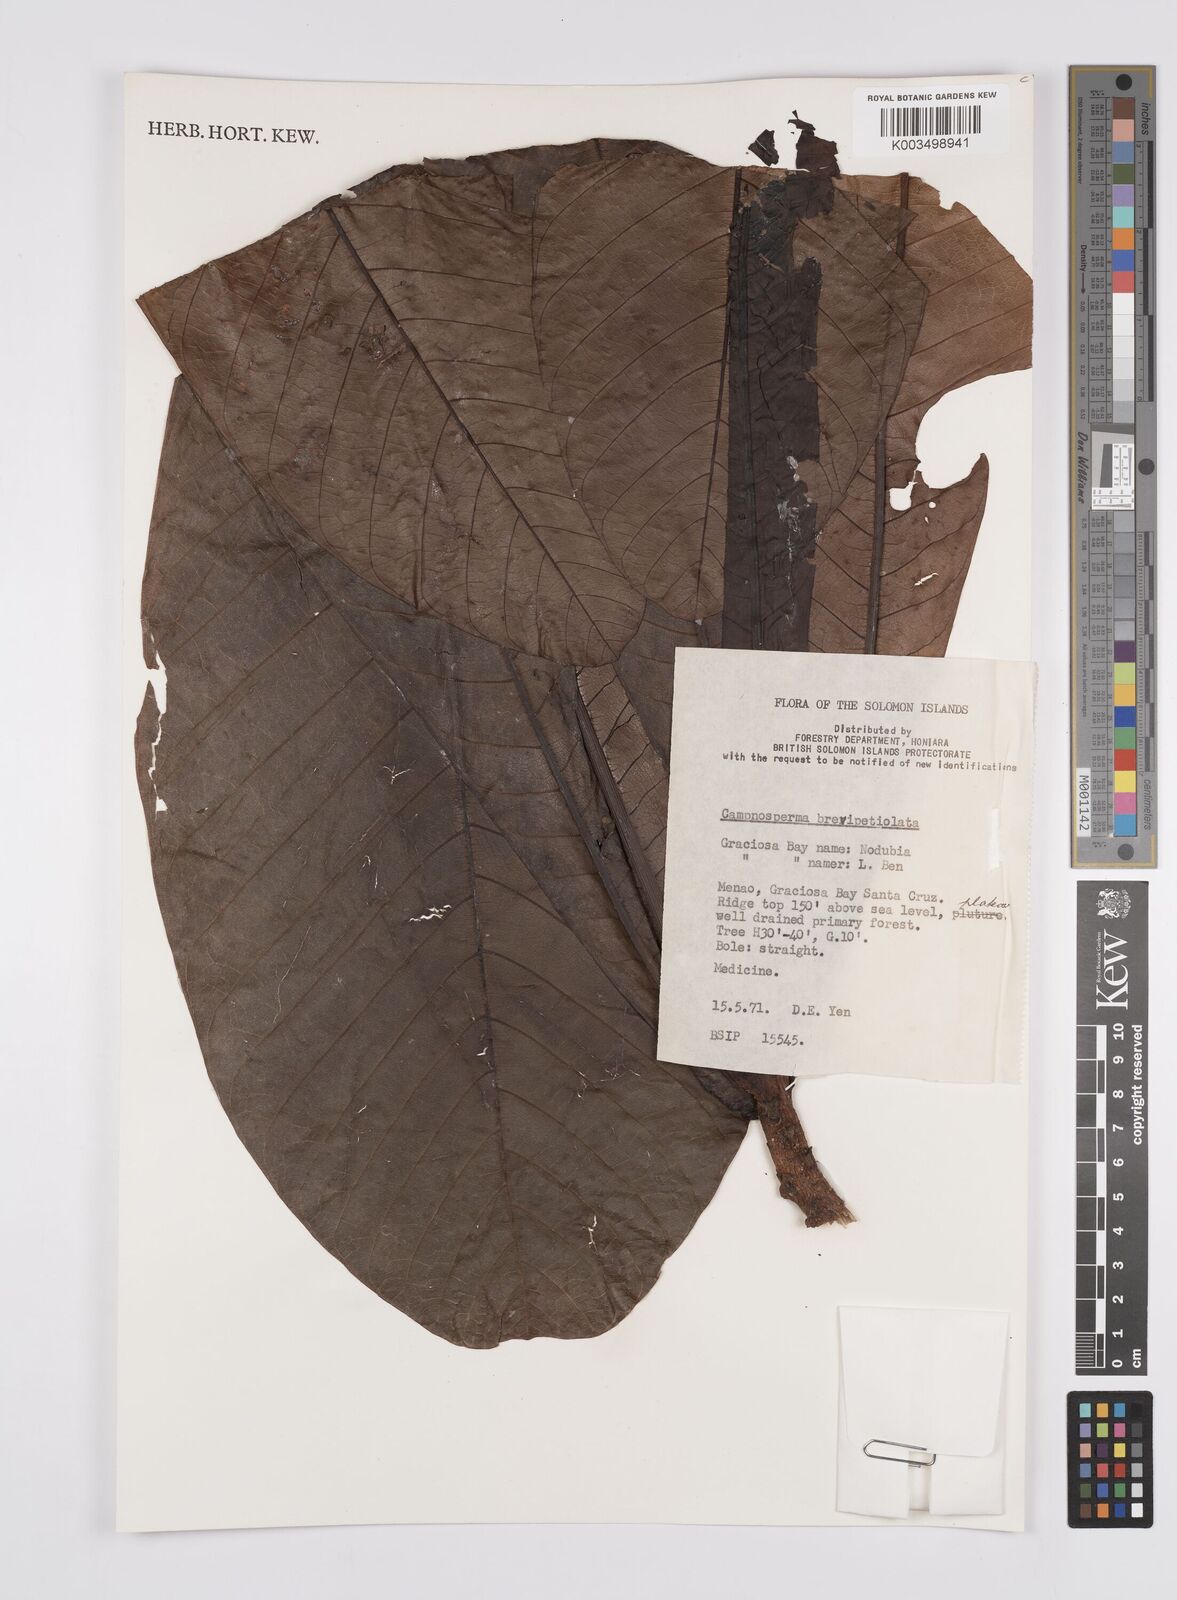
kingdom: Plantae
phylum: Tracheophyta
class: Magnoliopsida
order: Sapindales
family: Anacardiaceae
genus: Campnosperma
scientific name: Campnosperma brevipetiolatum
